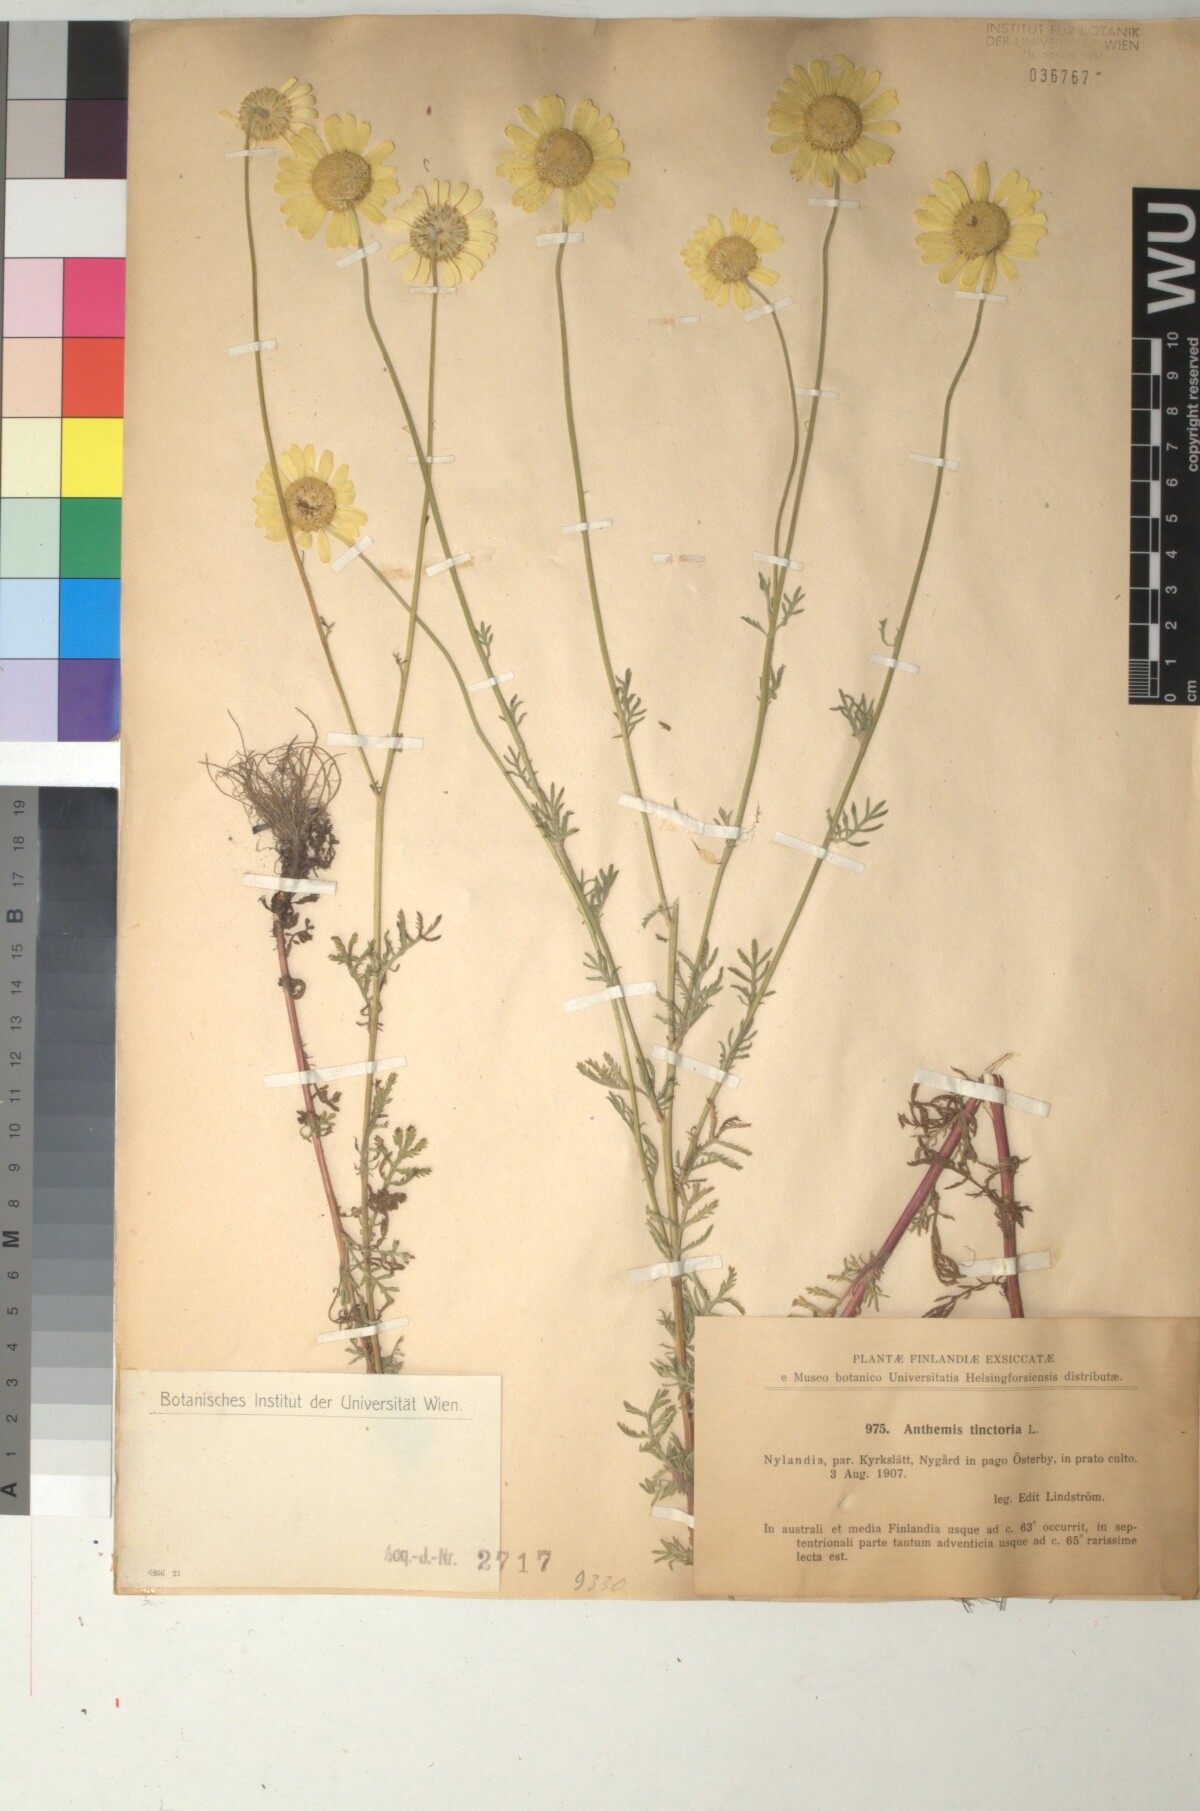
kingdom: Plantae
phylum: Tracheophyta
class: Magnoliopsida
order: Asterales
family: Asteraceae
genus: Cota
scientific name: Cota tinctoria
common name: Golden chamomile
